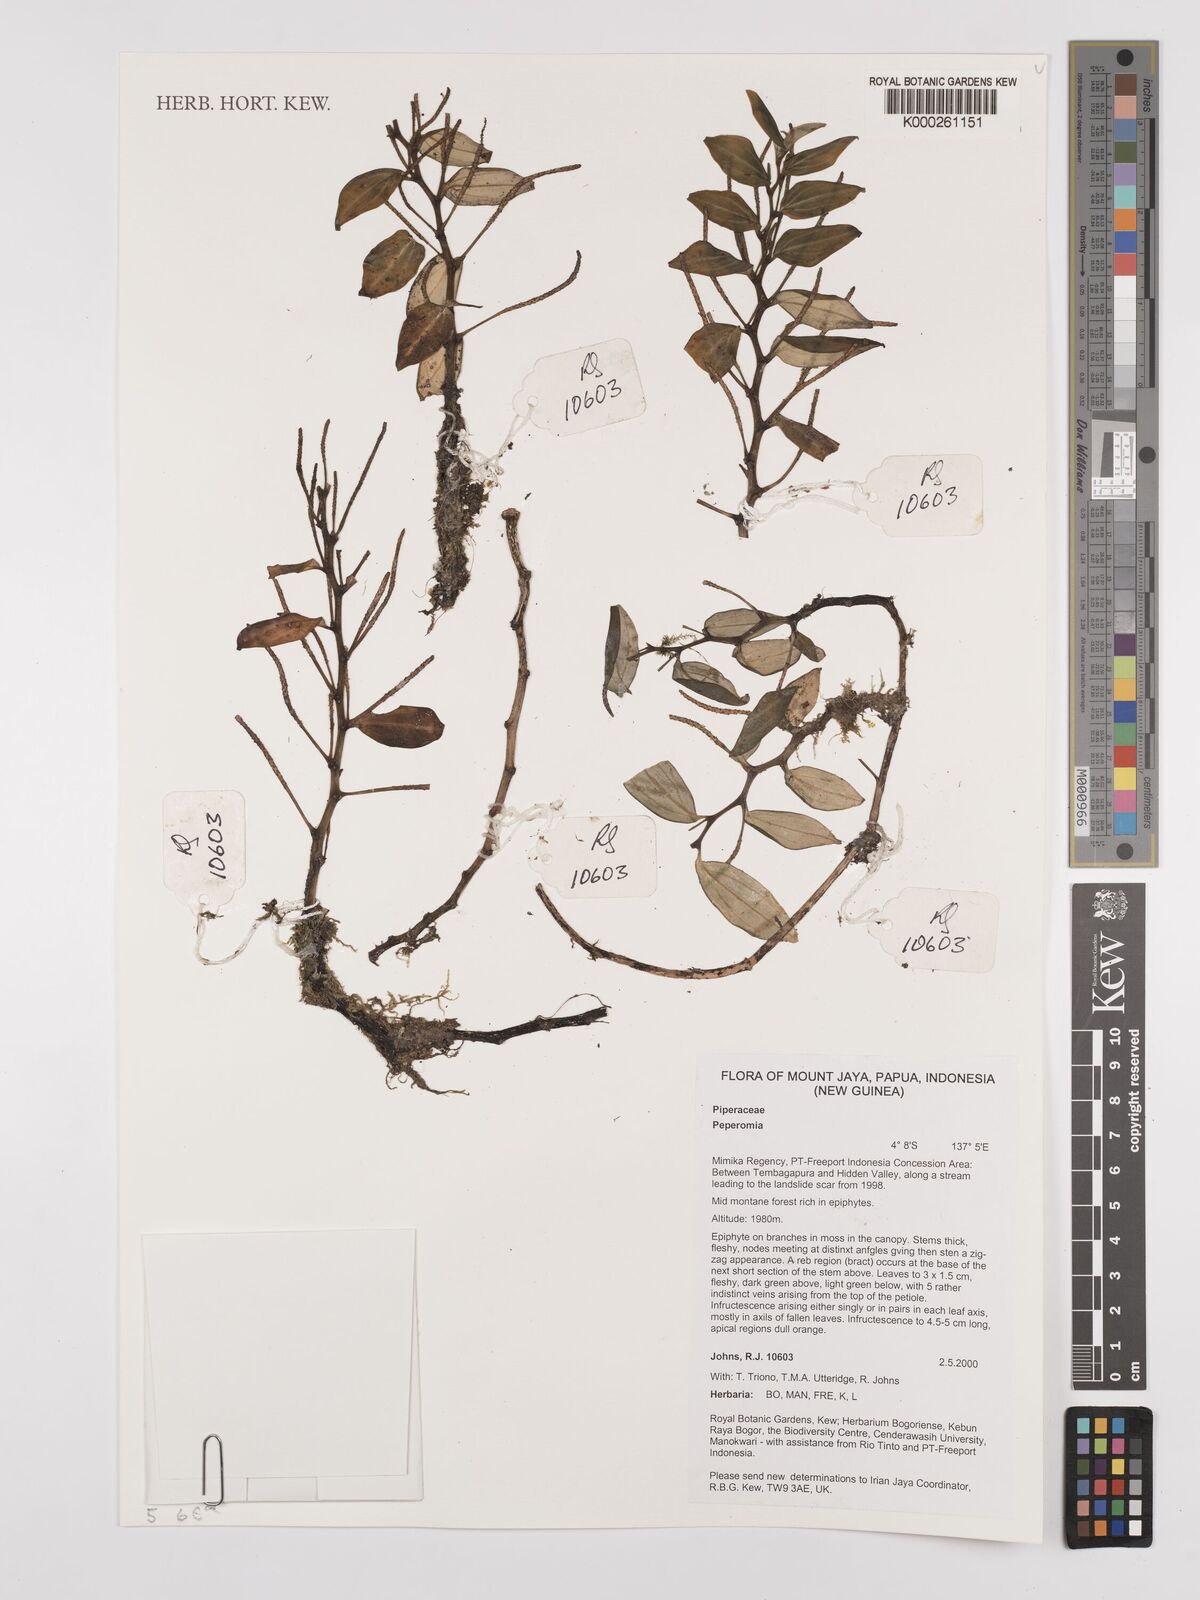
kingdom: Plantae
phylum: Tracheophyta
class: Magnoliopsida
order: Piperales
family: Piperaceae
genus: Peperomia
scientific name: Peperomia
